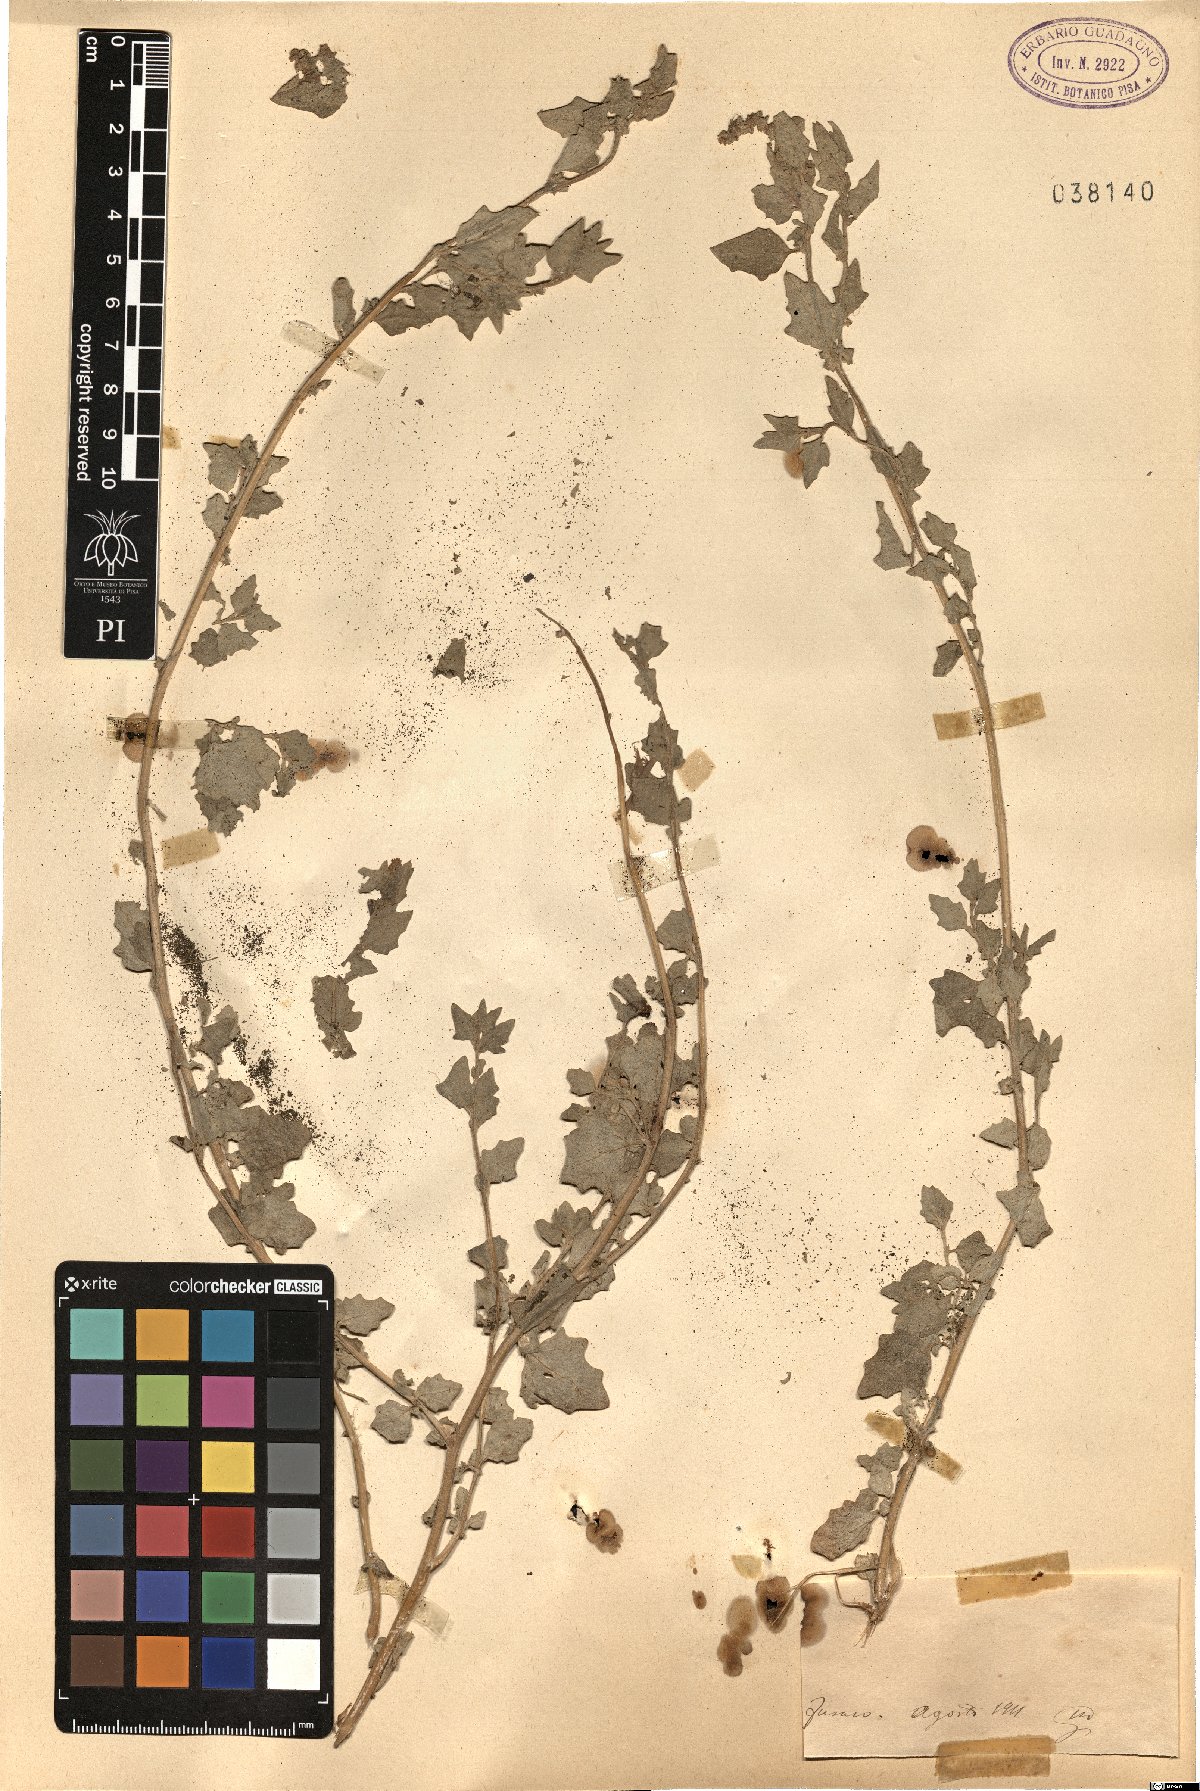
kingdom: Plantae
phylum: Tracheophyta
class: Magnoliopsida
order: Caryophyllales
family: Amaranthaceae
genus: Atriplex
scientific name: Atriplex
